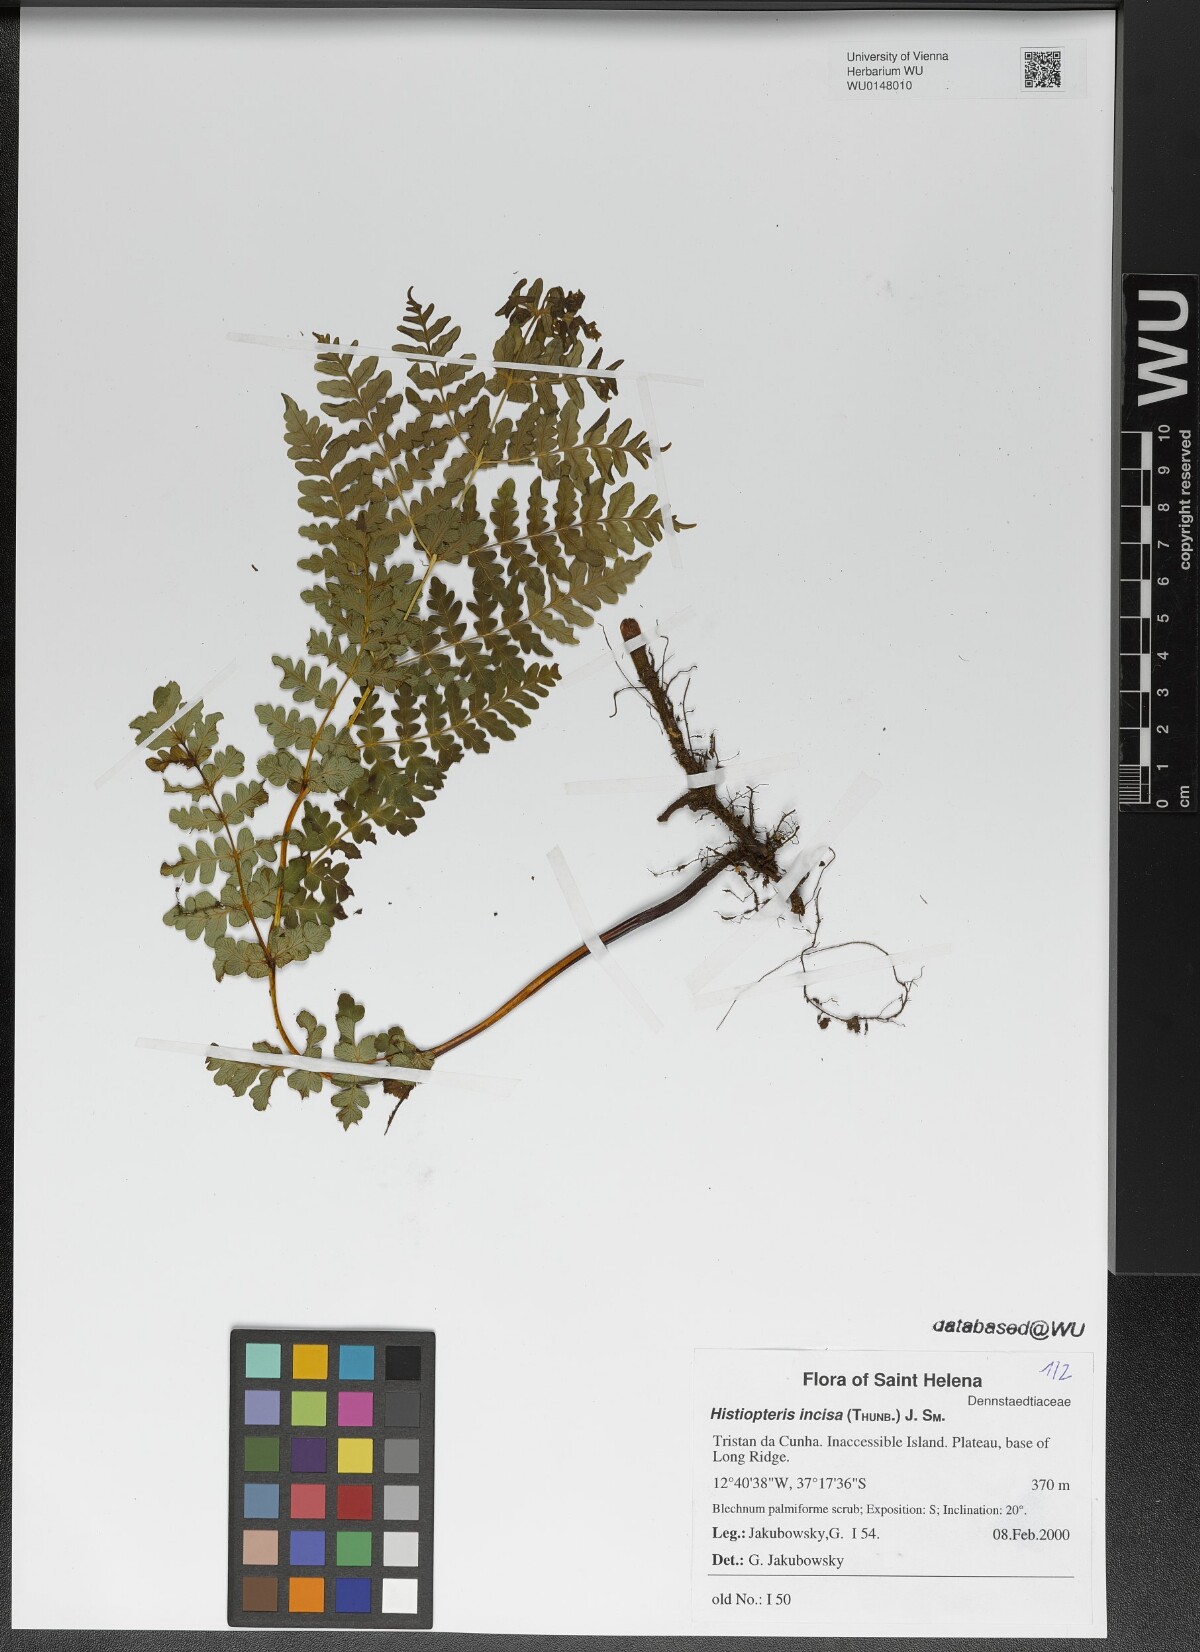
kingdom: Plantae
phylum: Tracheophyta
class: Polypodiopsida
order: Polypodiales
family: Dennstaedtiaceae
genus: Histiopteris
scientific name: Histiopteris incisa
